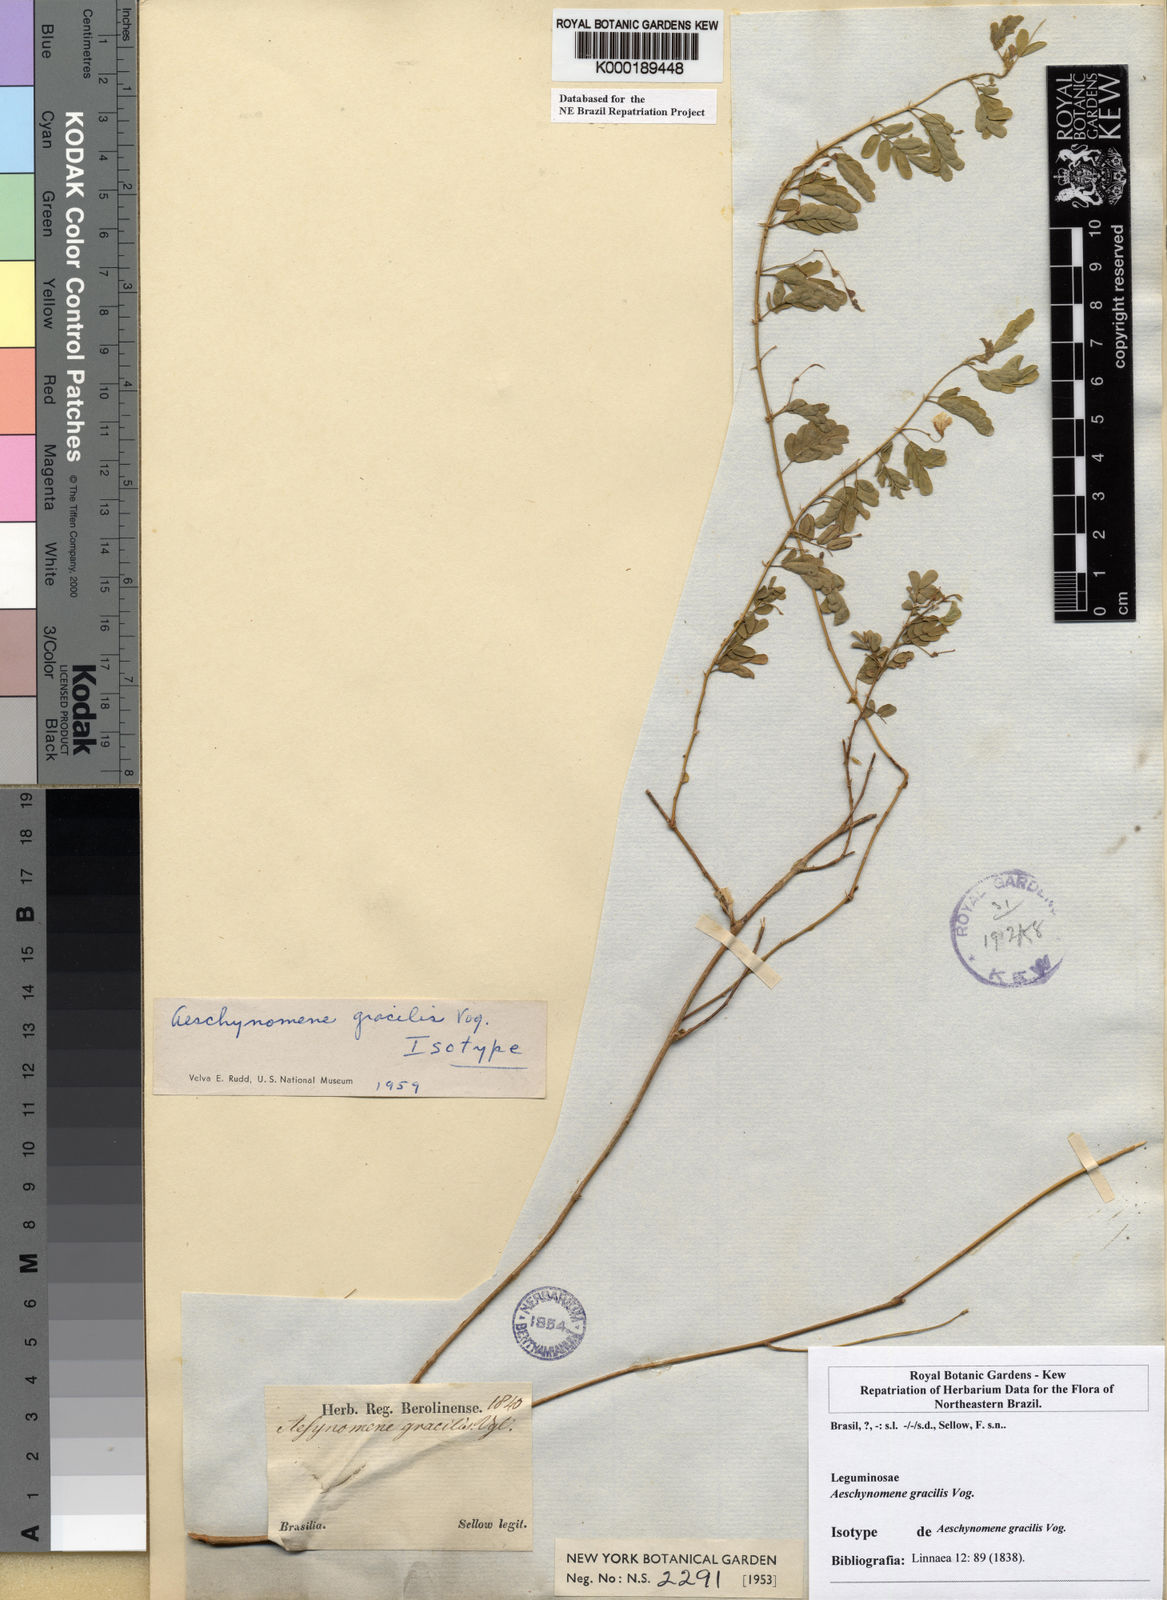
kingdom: Plantae
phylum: Tracheophyta
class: Magnoliopsida
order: Fabales
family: Fabaceae
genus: Ctenodon
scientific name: Ctenodon gracilis
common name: Puerto rico jointvetch
